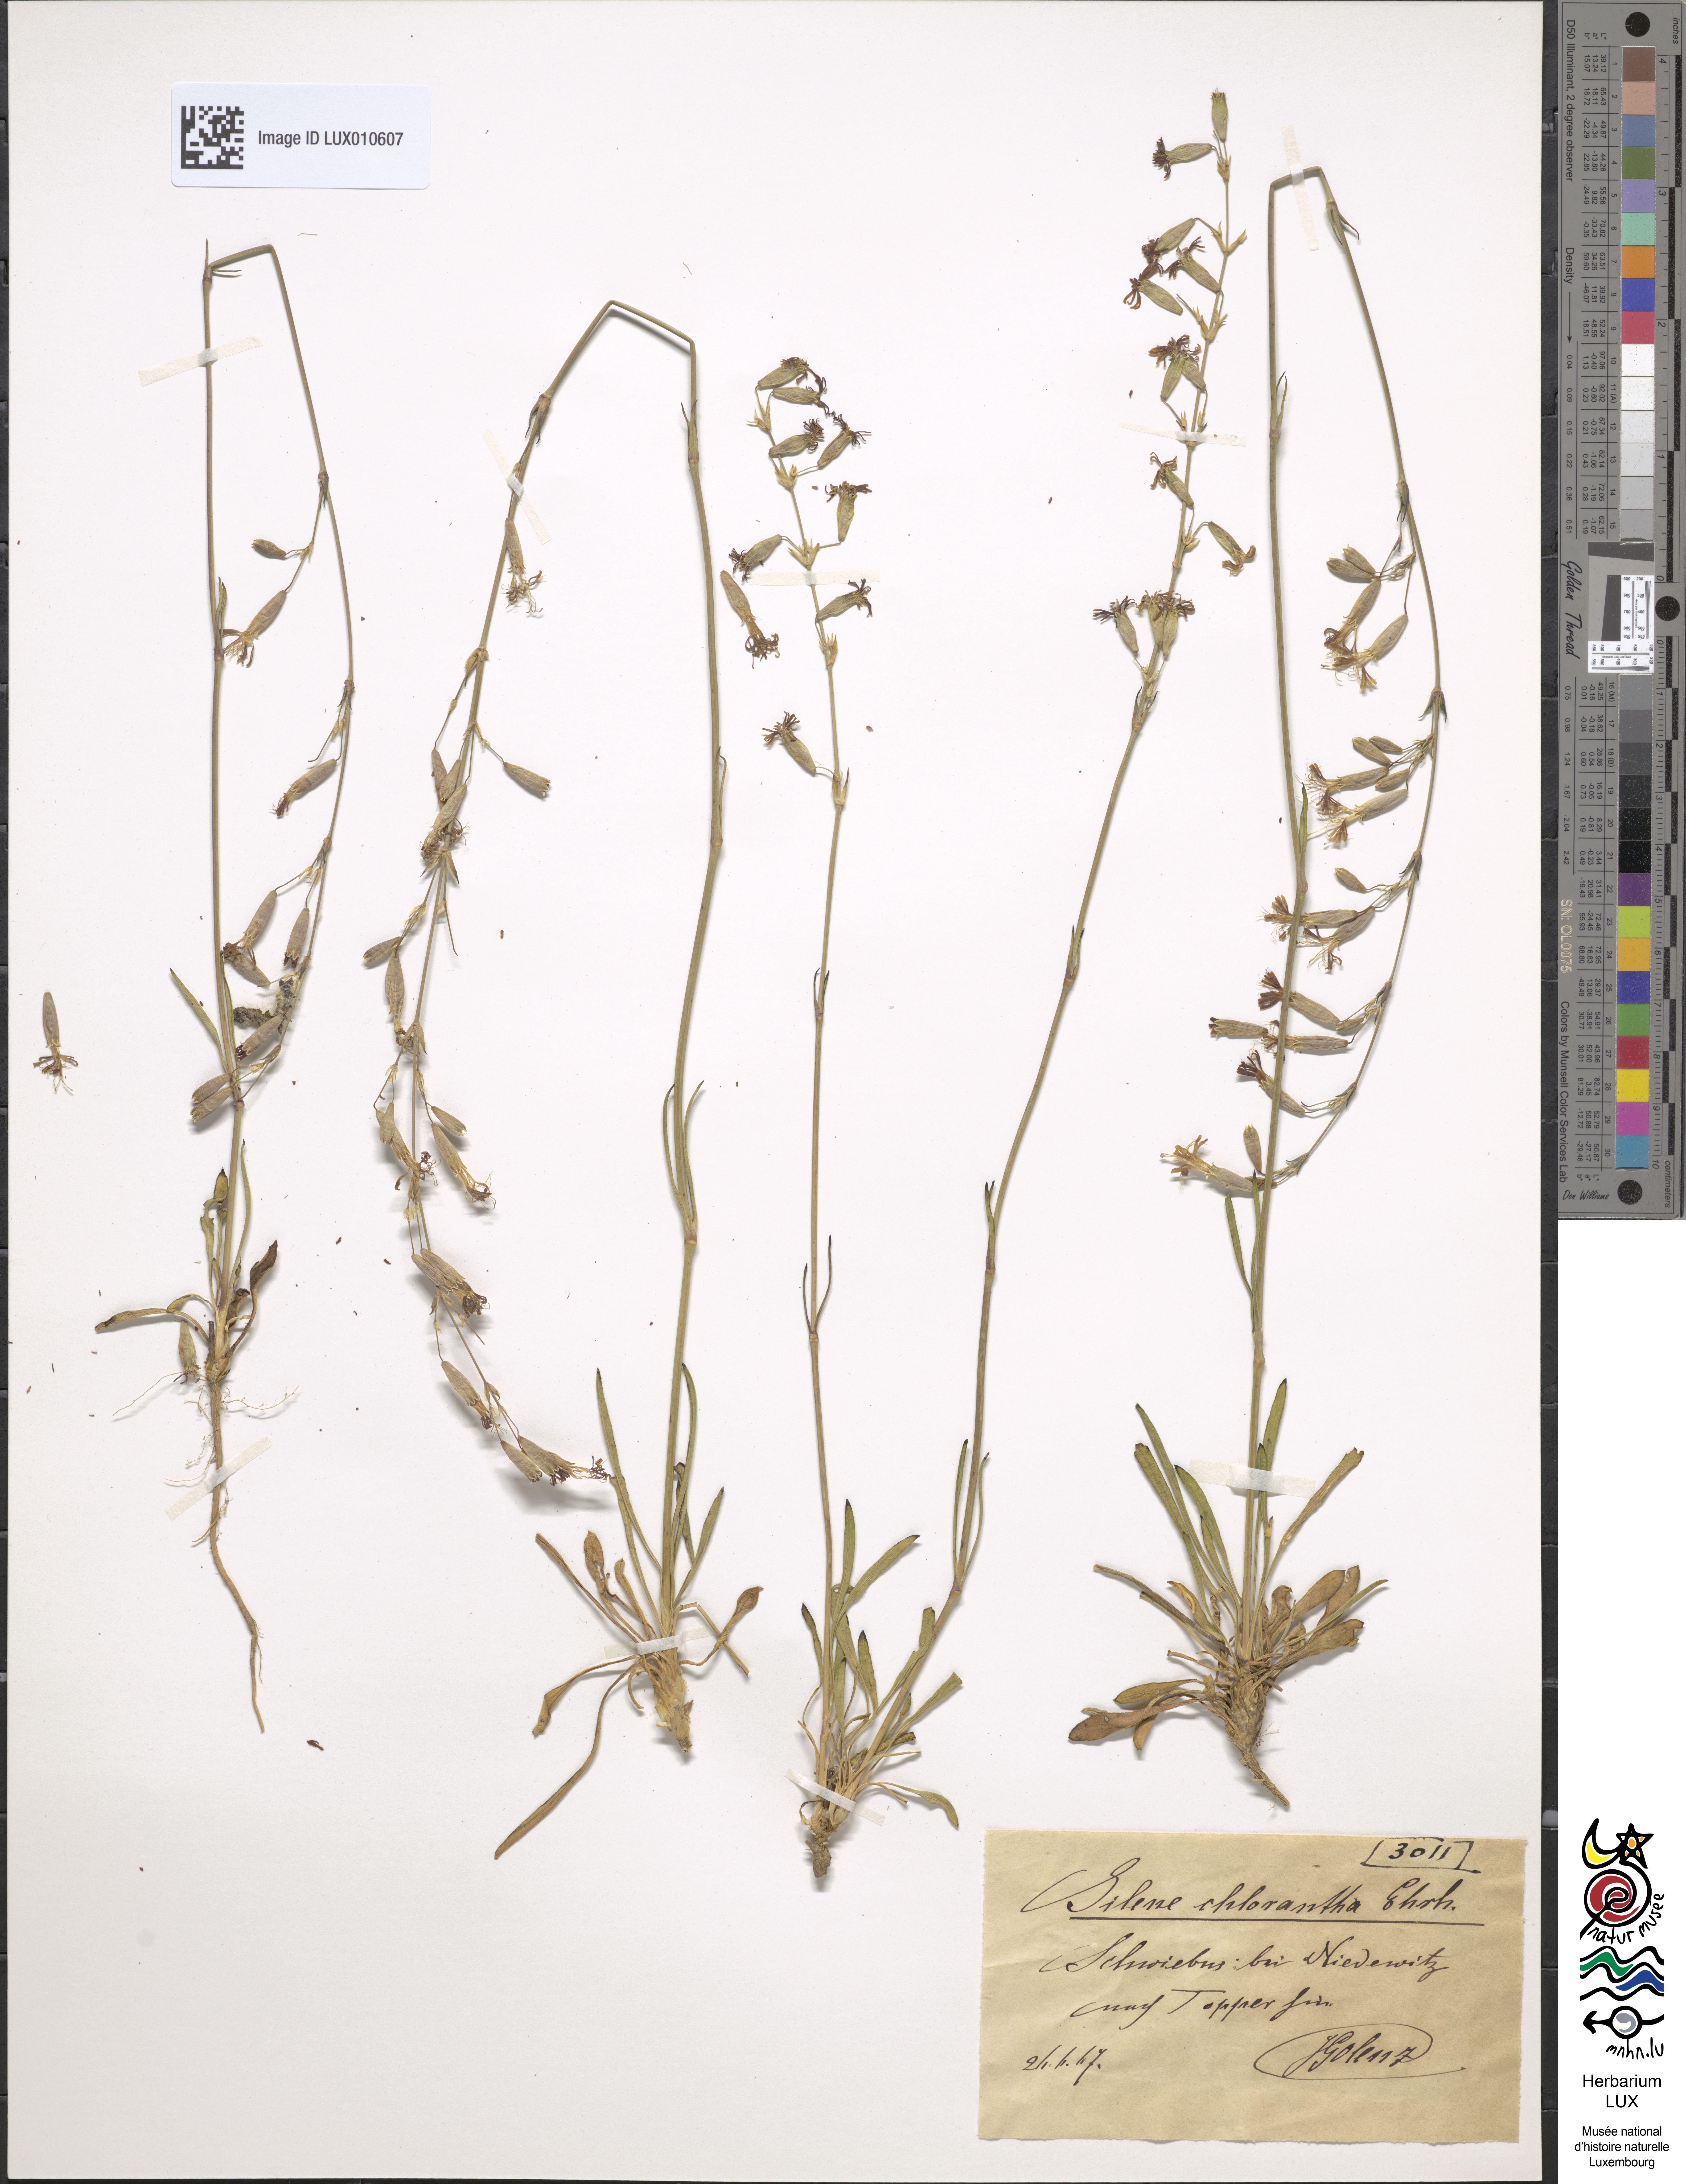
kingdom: Plantae
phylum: Tracheophyta
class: Magnoliopsida
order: Caryophyllales
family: Caryophyllaceae
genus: Silene
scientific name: Silene chlorantha
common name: Yellowgreen catchfly
